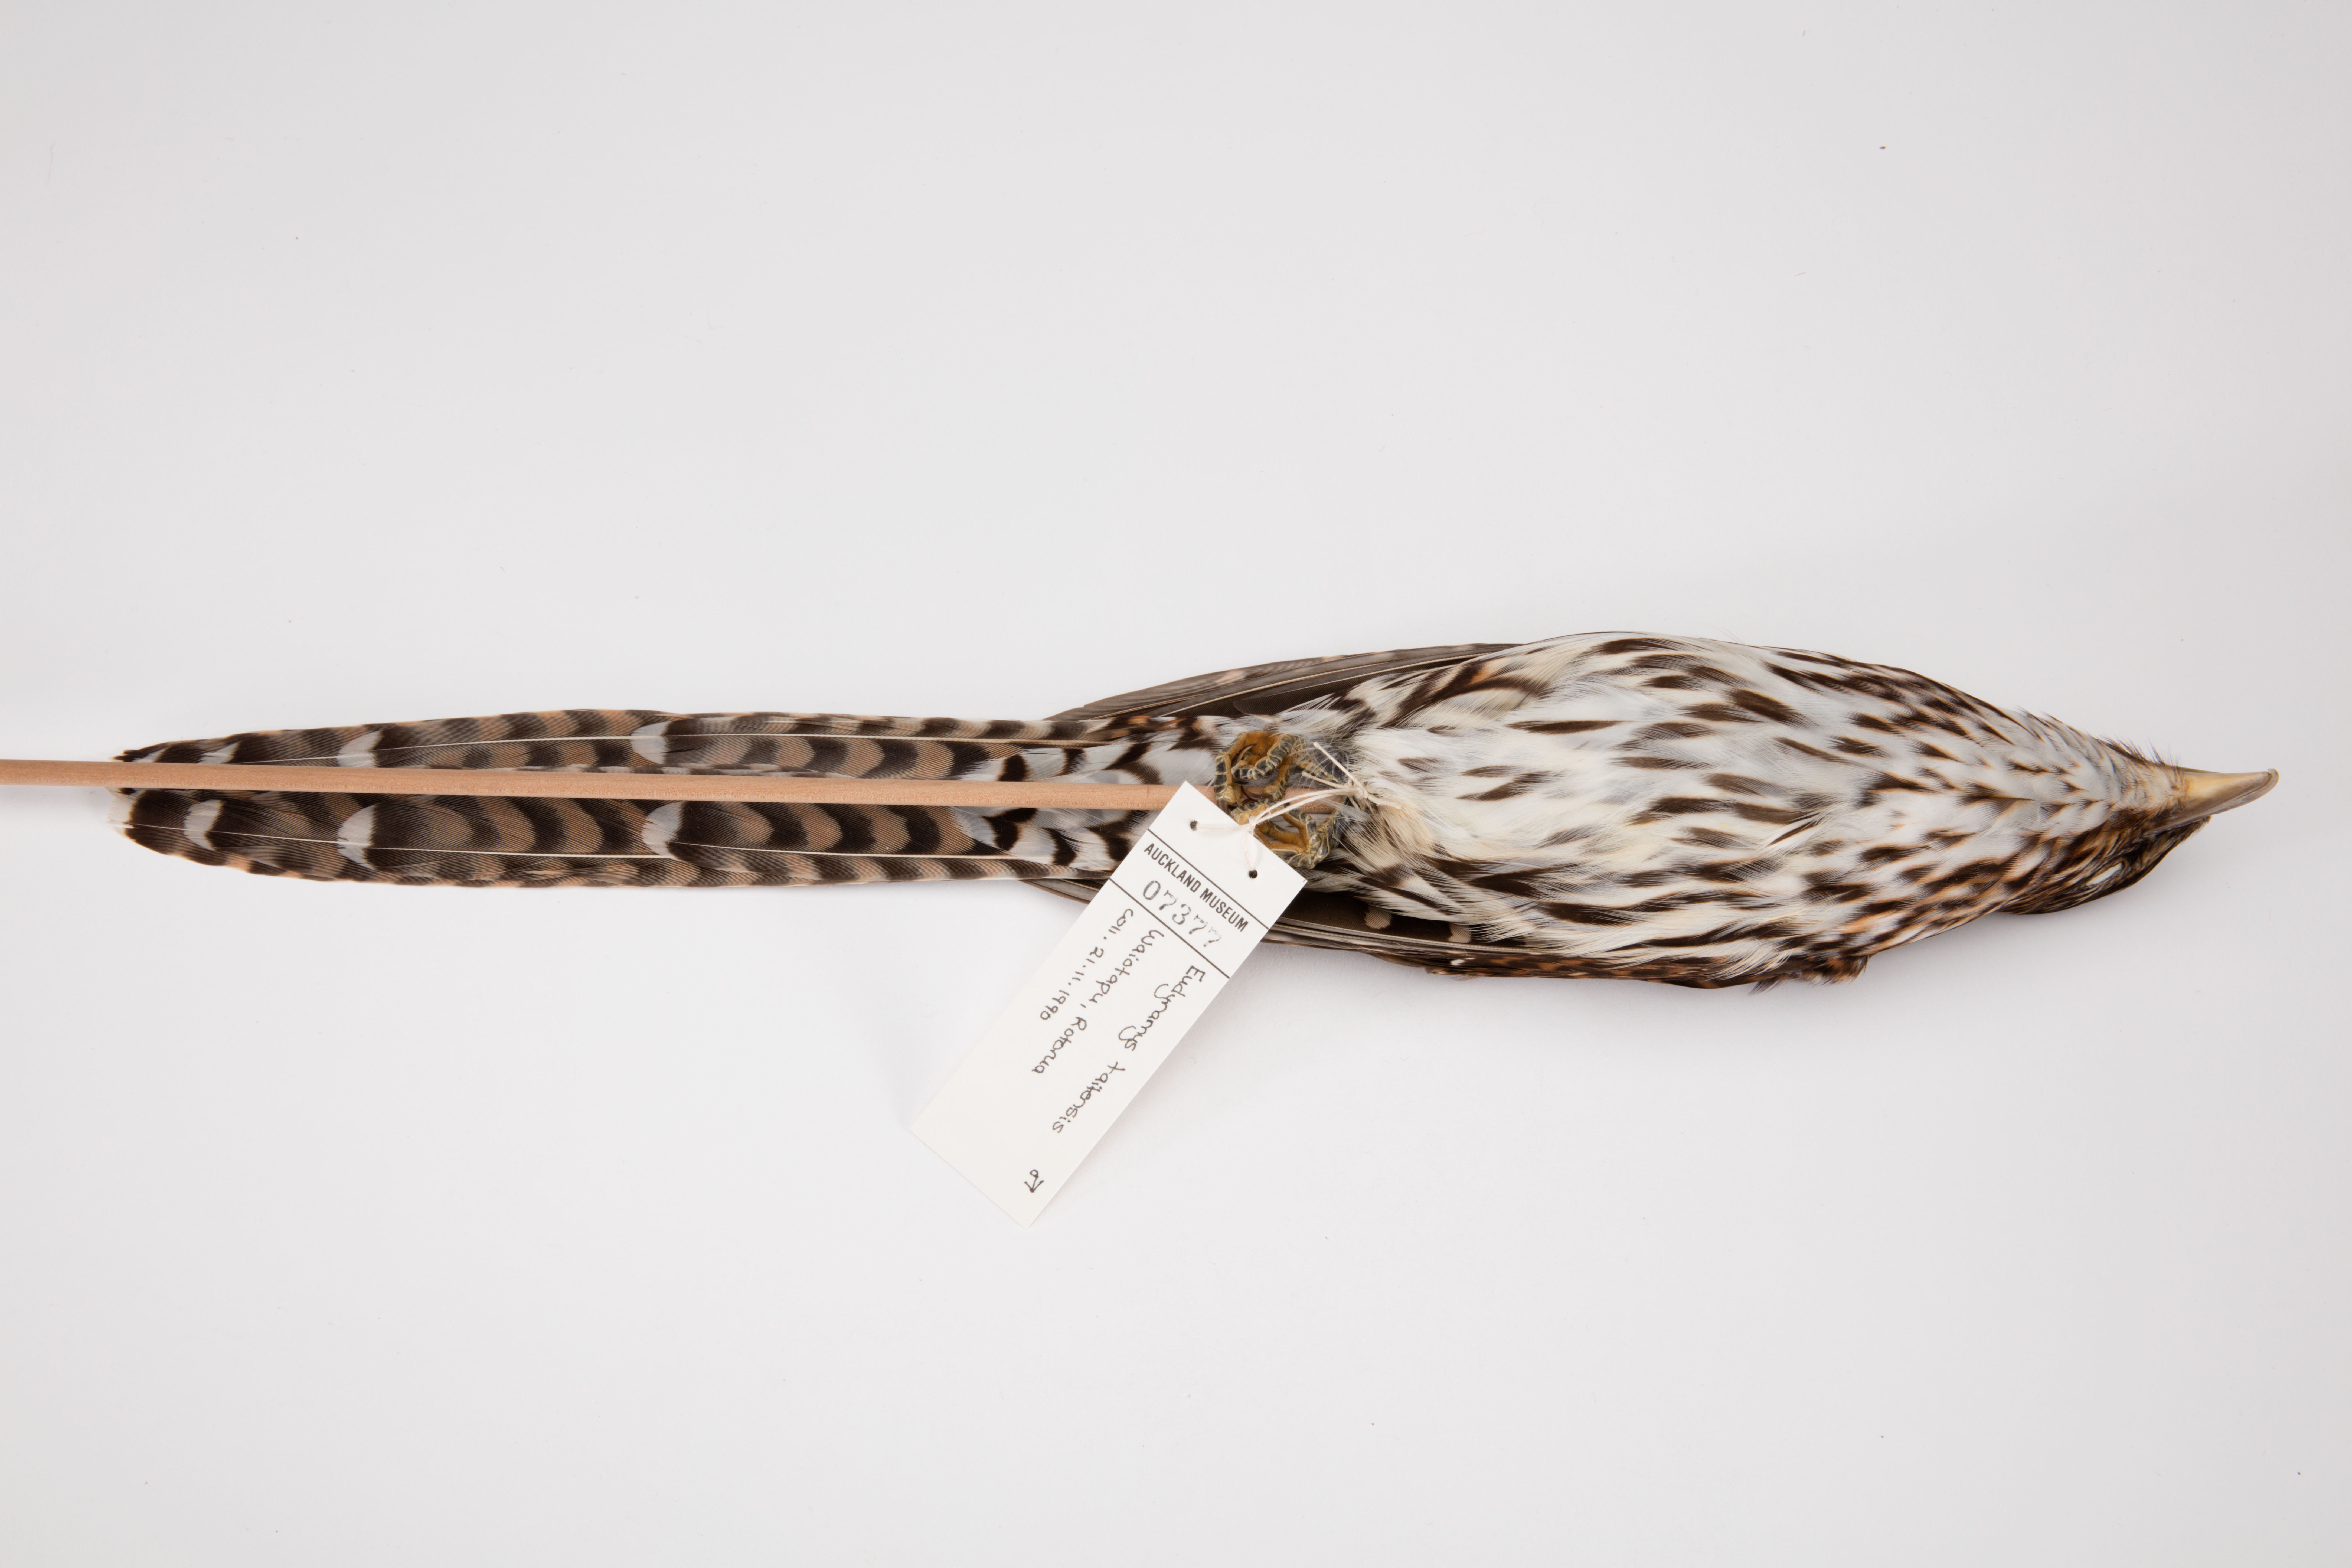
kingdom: Animalia
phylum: Chordata
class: Aves
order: Cuculiformes
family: Cuculidae
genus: Urodynamis
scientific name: Urodynamis taitensis
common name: Long-tailed koel
